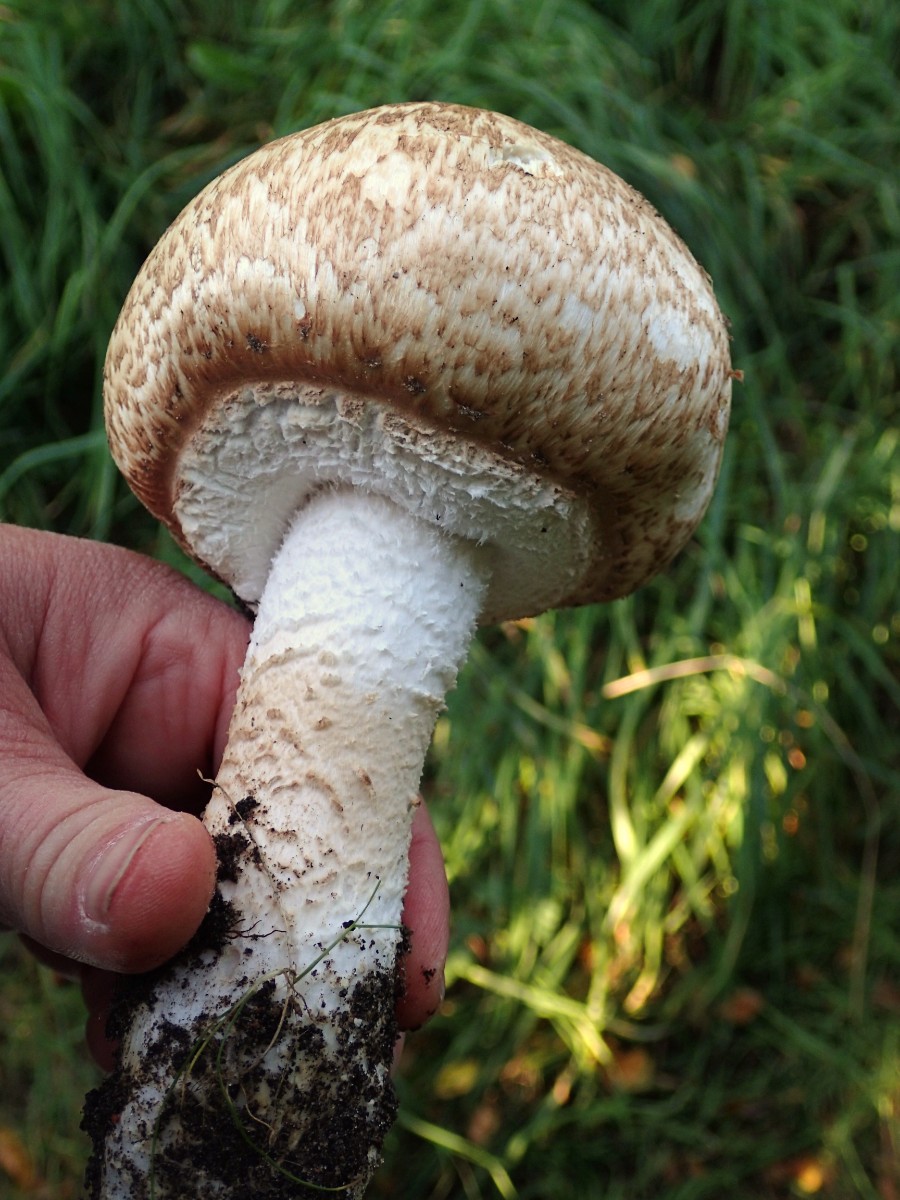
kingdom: Fungi
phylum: Basidiomycota
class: Agaricomycetes
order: Agaricales
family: Agaricaceae
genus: Agaricus
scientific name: Agaricus augustus
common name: prægtig champignon
